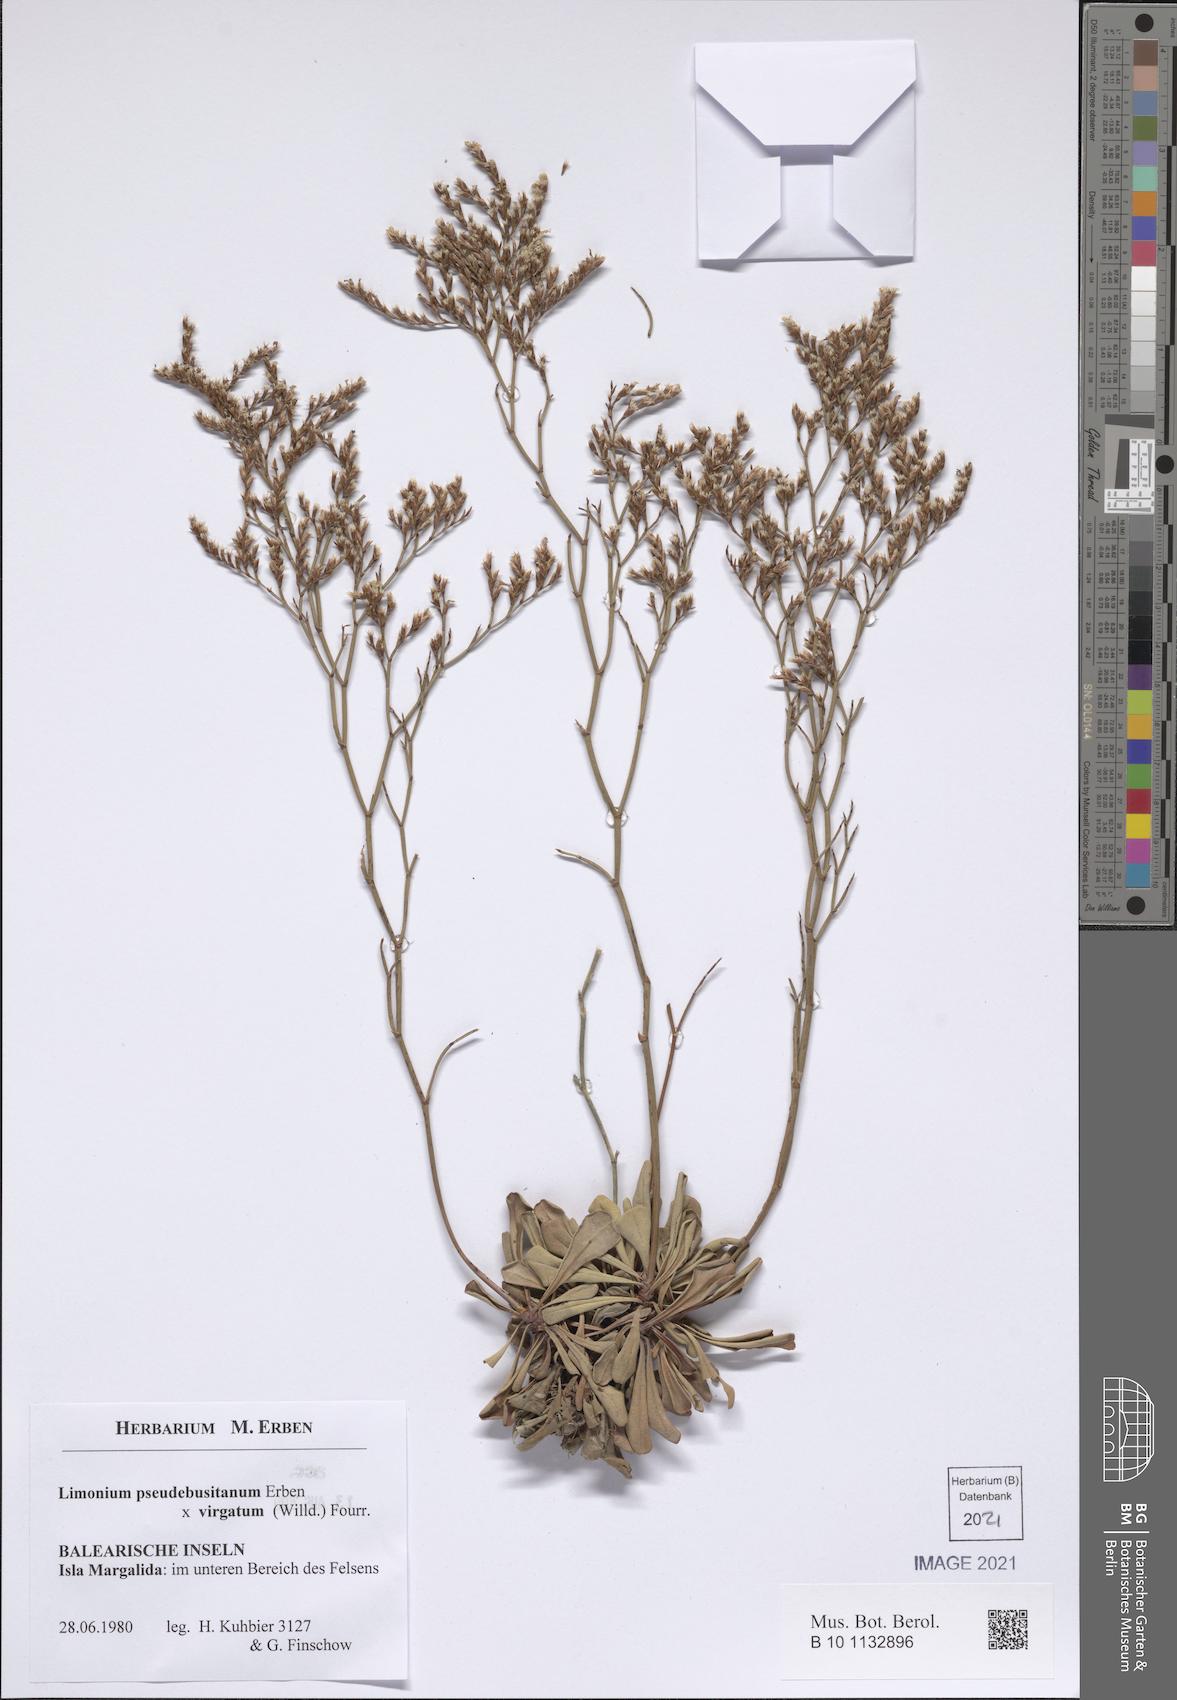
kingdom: Plantae
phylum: Tracheophyta
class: Magnoliopsida
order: Caryophyllales
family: Plumbaginaceae
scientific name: Plumbaginaceae
